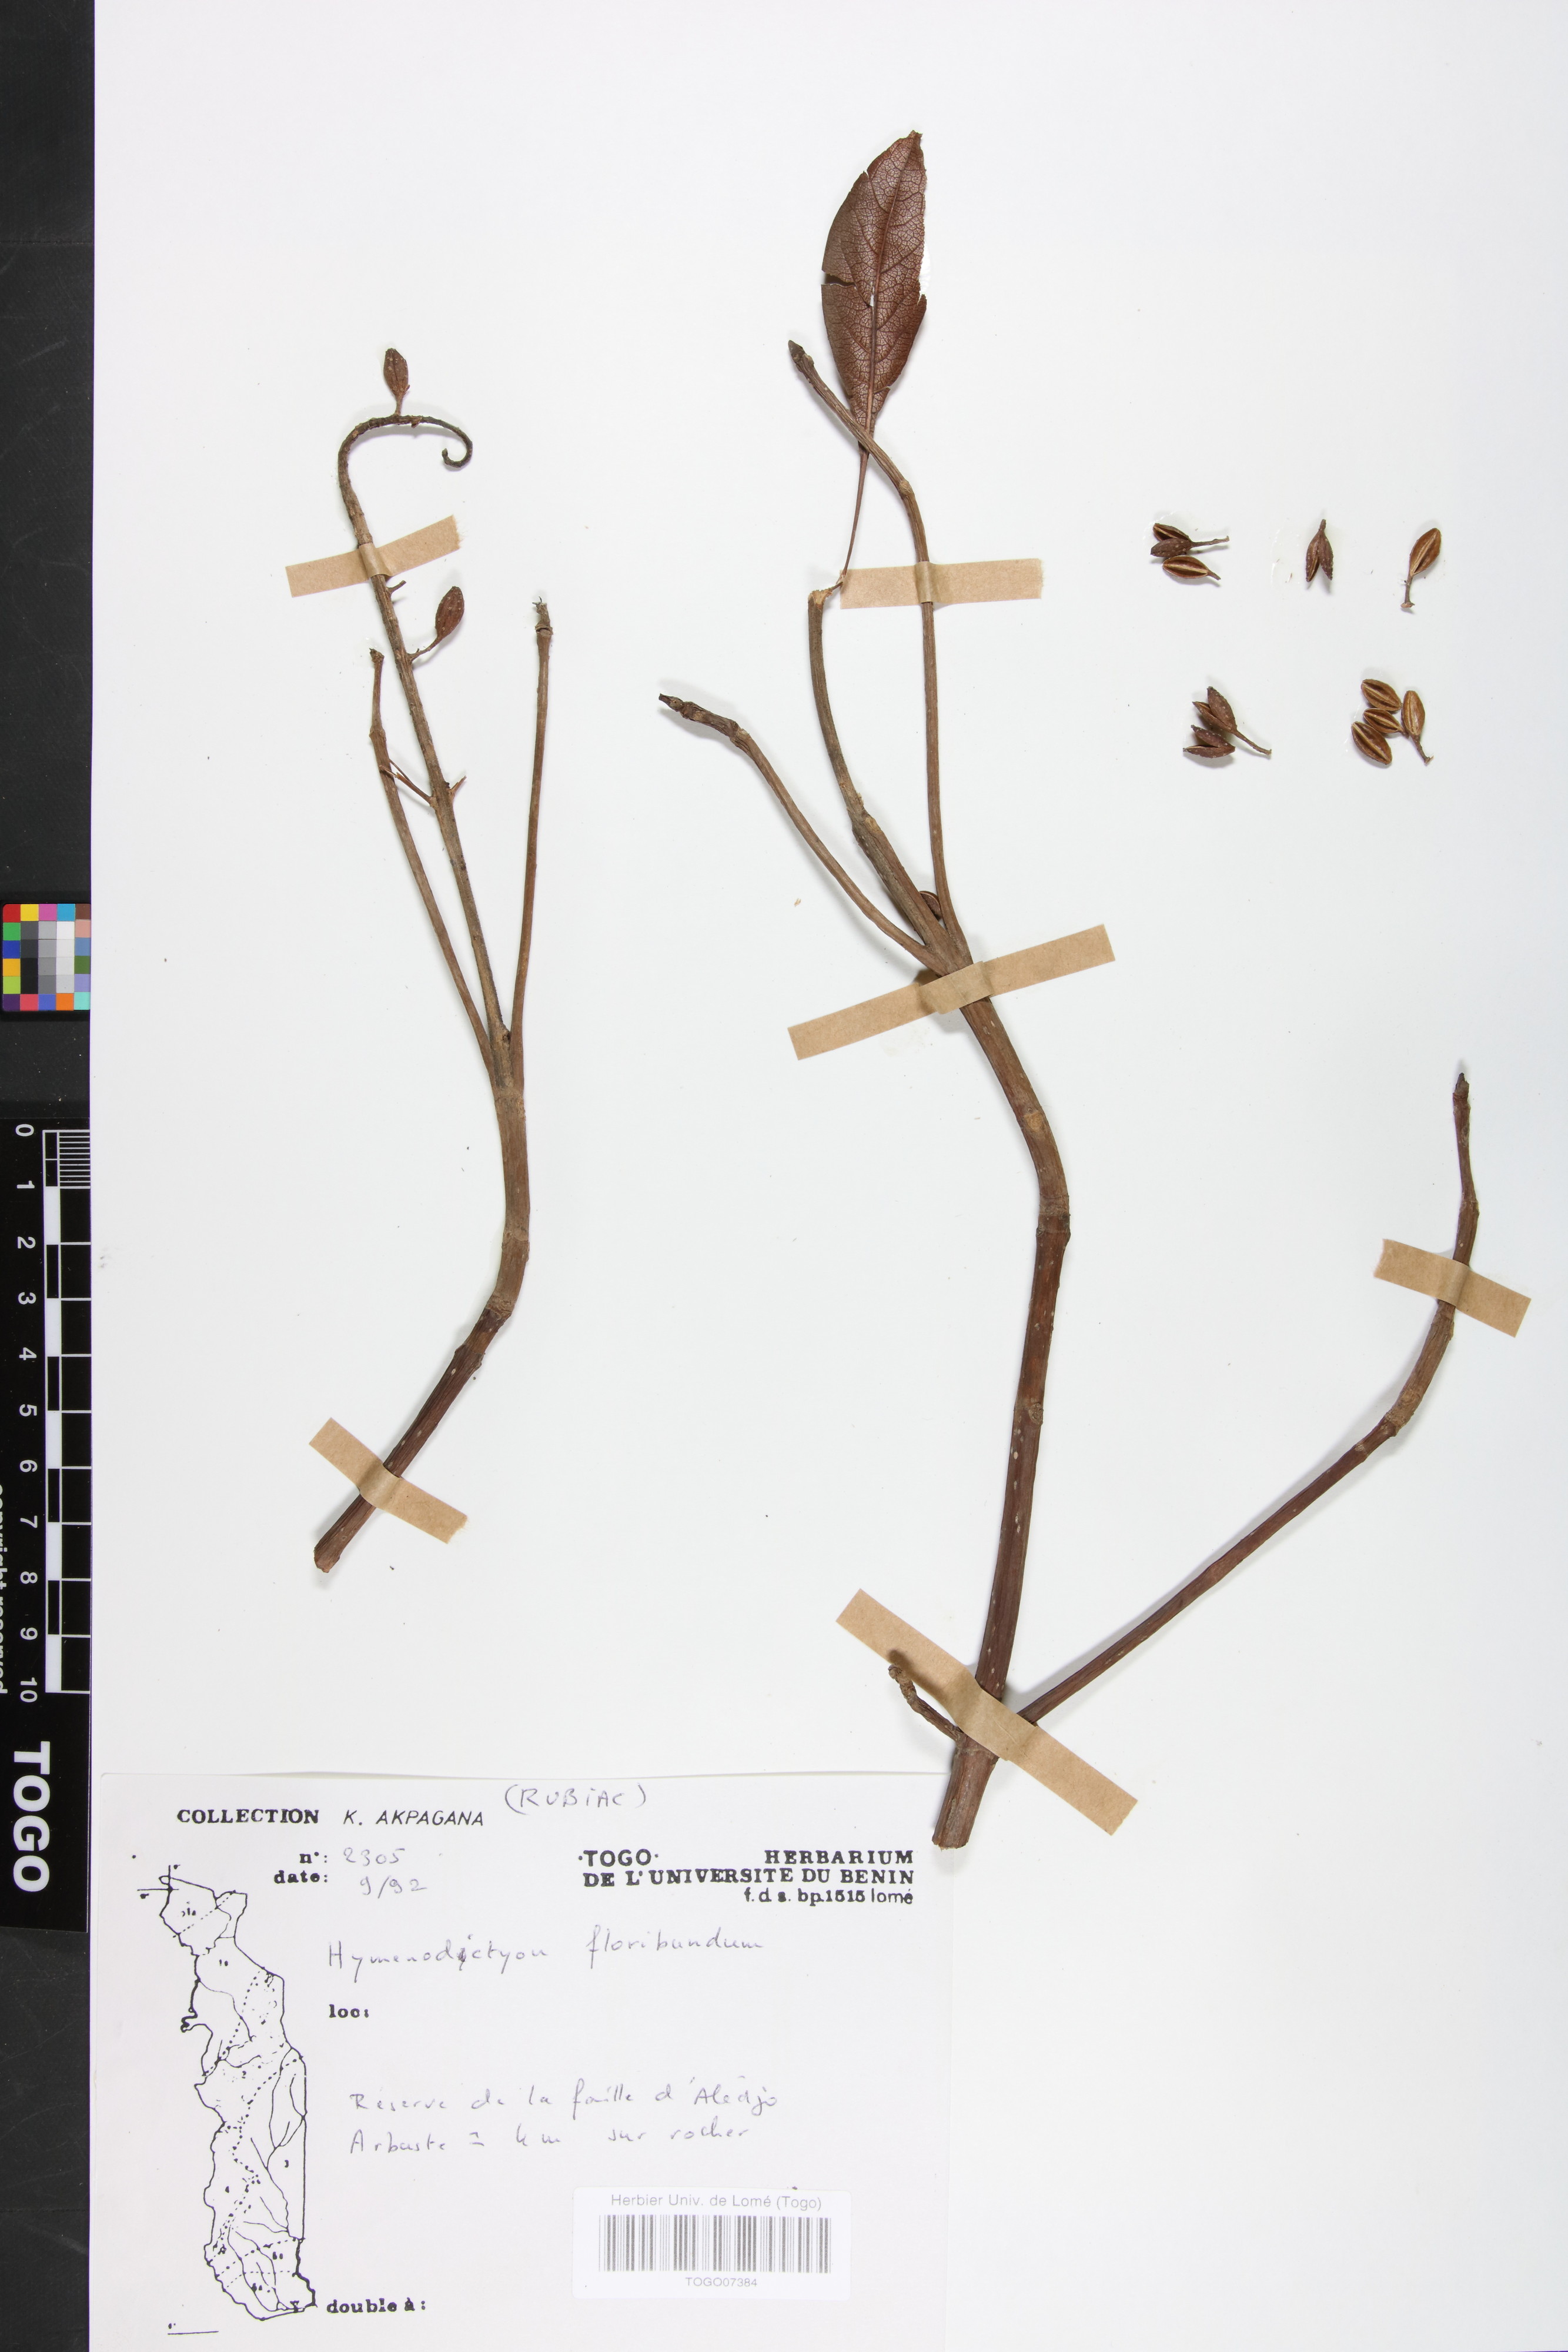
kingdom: Plantae
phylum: Tracheophyta
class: Magnoliopsida
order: Gentianales
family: Rubiaceae
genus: Hymenodictyon
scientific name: Hymenodictyon floribundum
